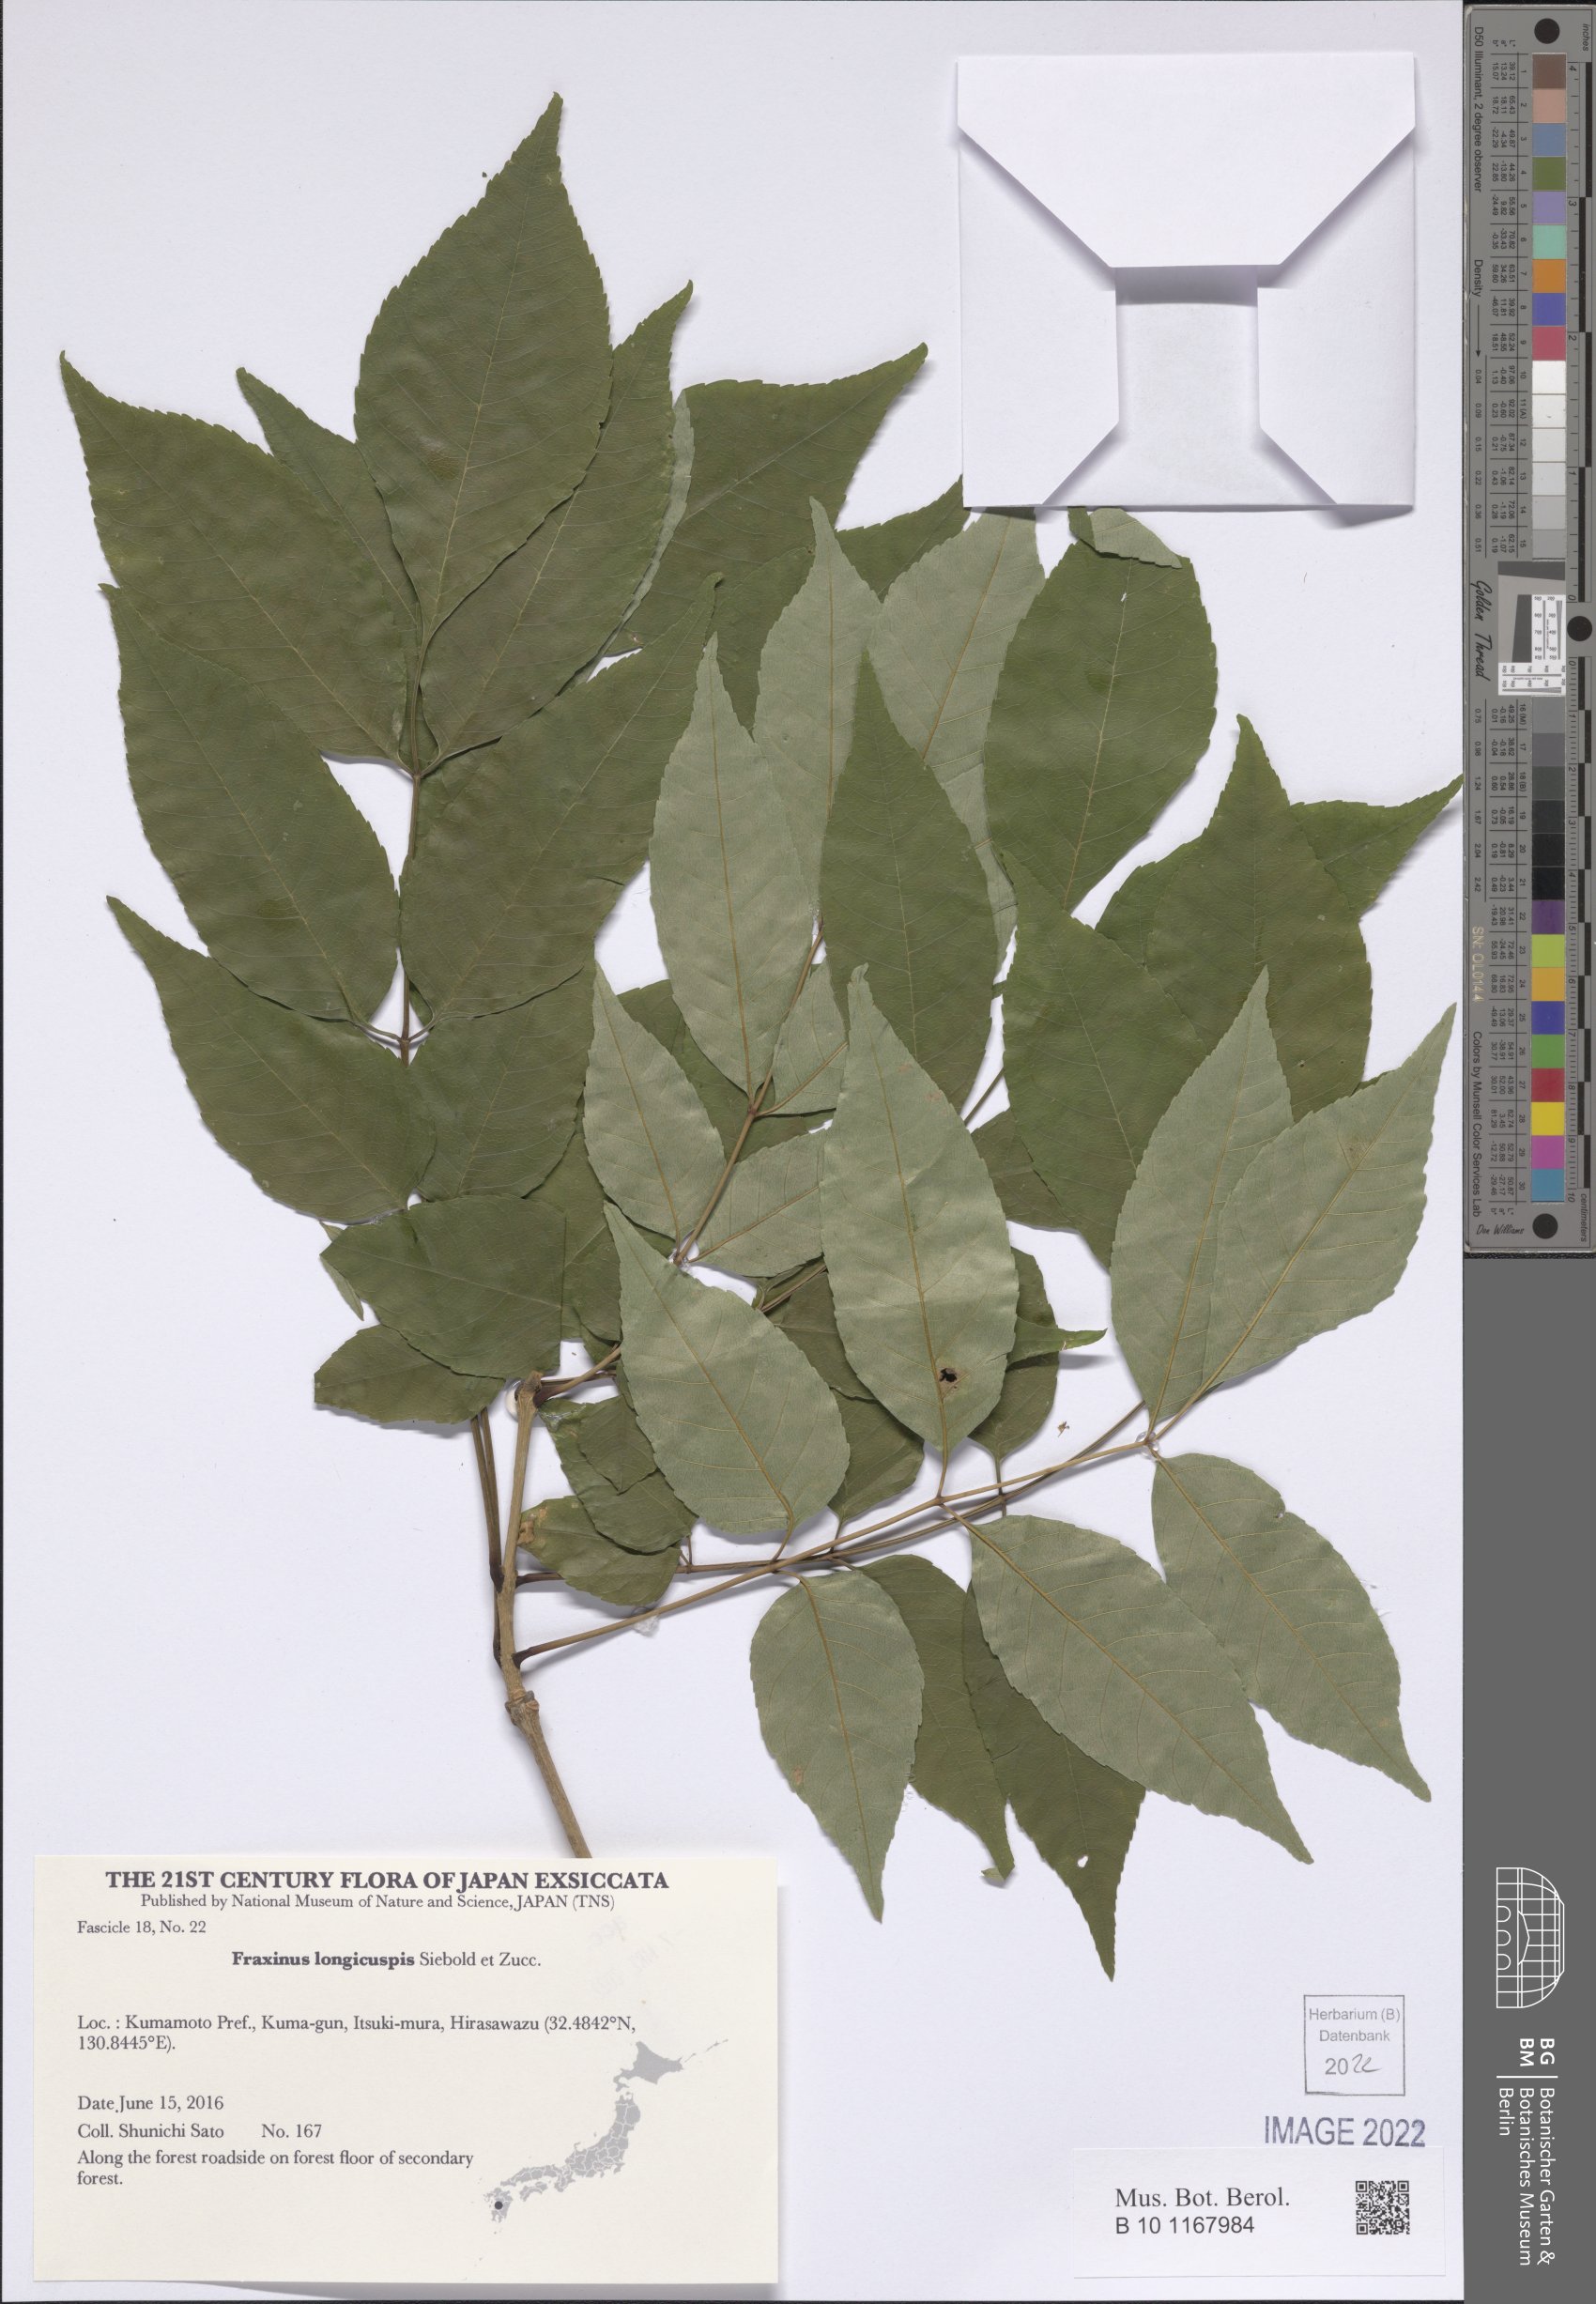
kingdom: Plantae
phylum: Tracheophyta
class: Magnoliopsida
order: Lamiales
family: Oleaceae
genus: Fraxinus
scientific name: Fraxinus longicuspis
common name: Japanese ash
